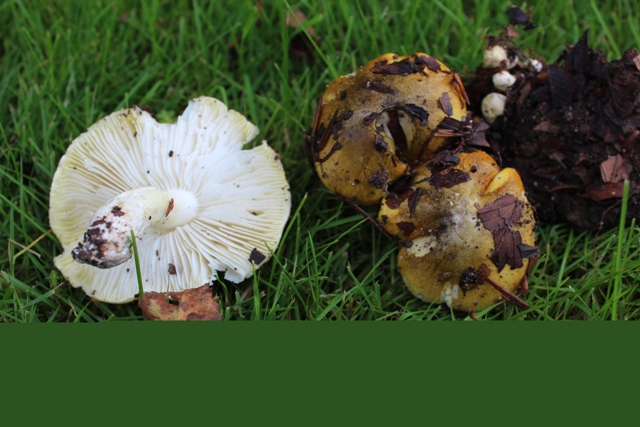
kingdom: Fungi
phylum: Basidiomycota
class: Agaricomycetes
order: Agaricales
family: Tricholomataceae
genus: Tricholoma
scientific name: Tricholoma sejunctum
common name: grøngul ridderhat
